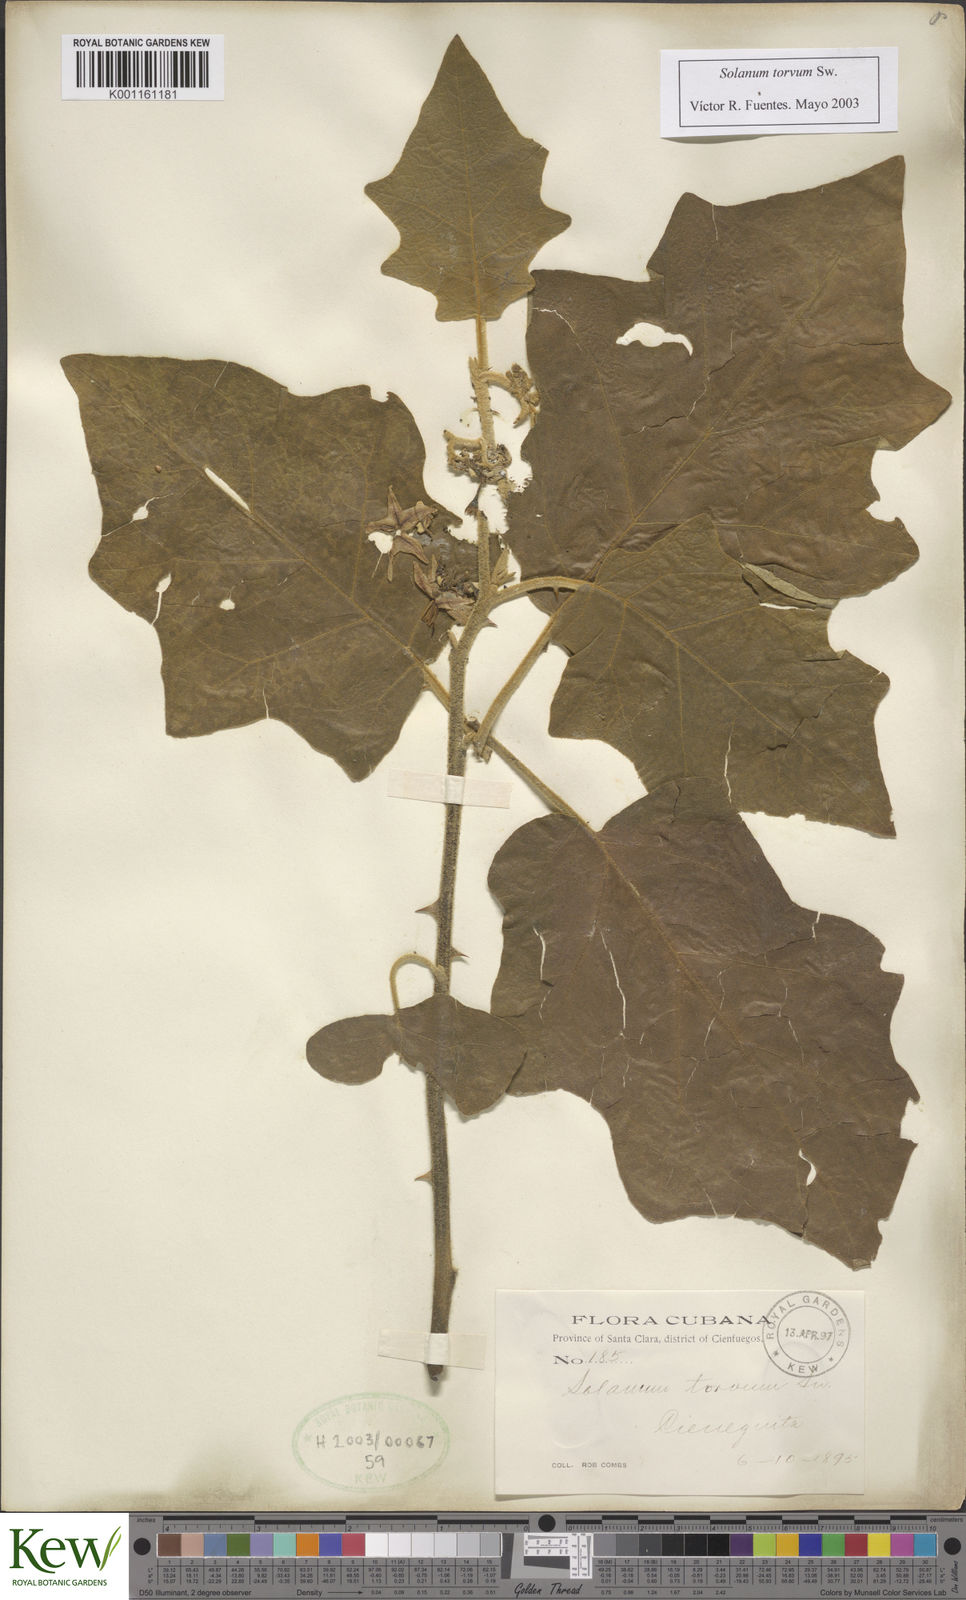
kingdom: Plantae
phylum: Tracheophyta
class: Magnoliopsida
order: Solanales
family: Solanaceae
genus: Solanum
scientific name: Solanum torvum
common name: Turkey berry
